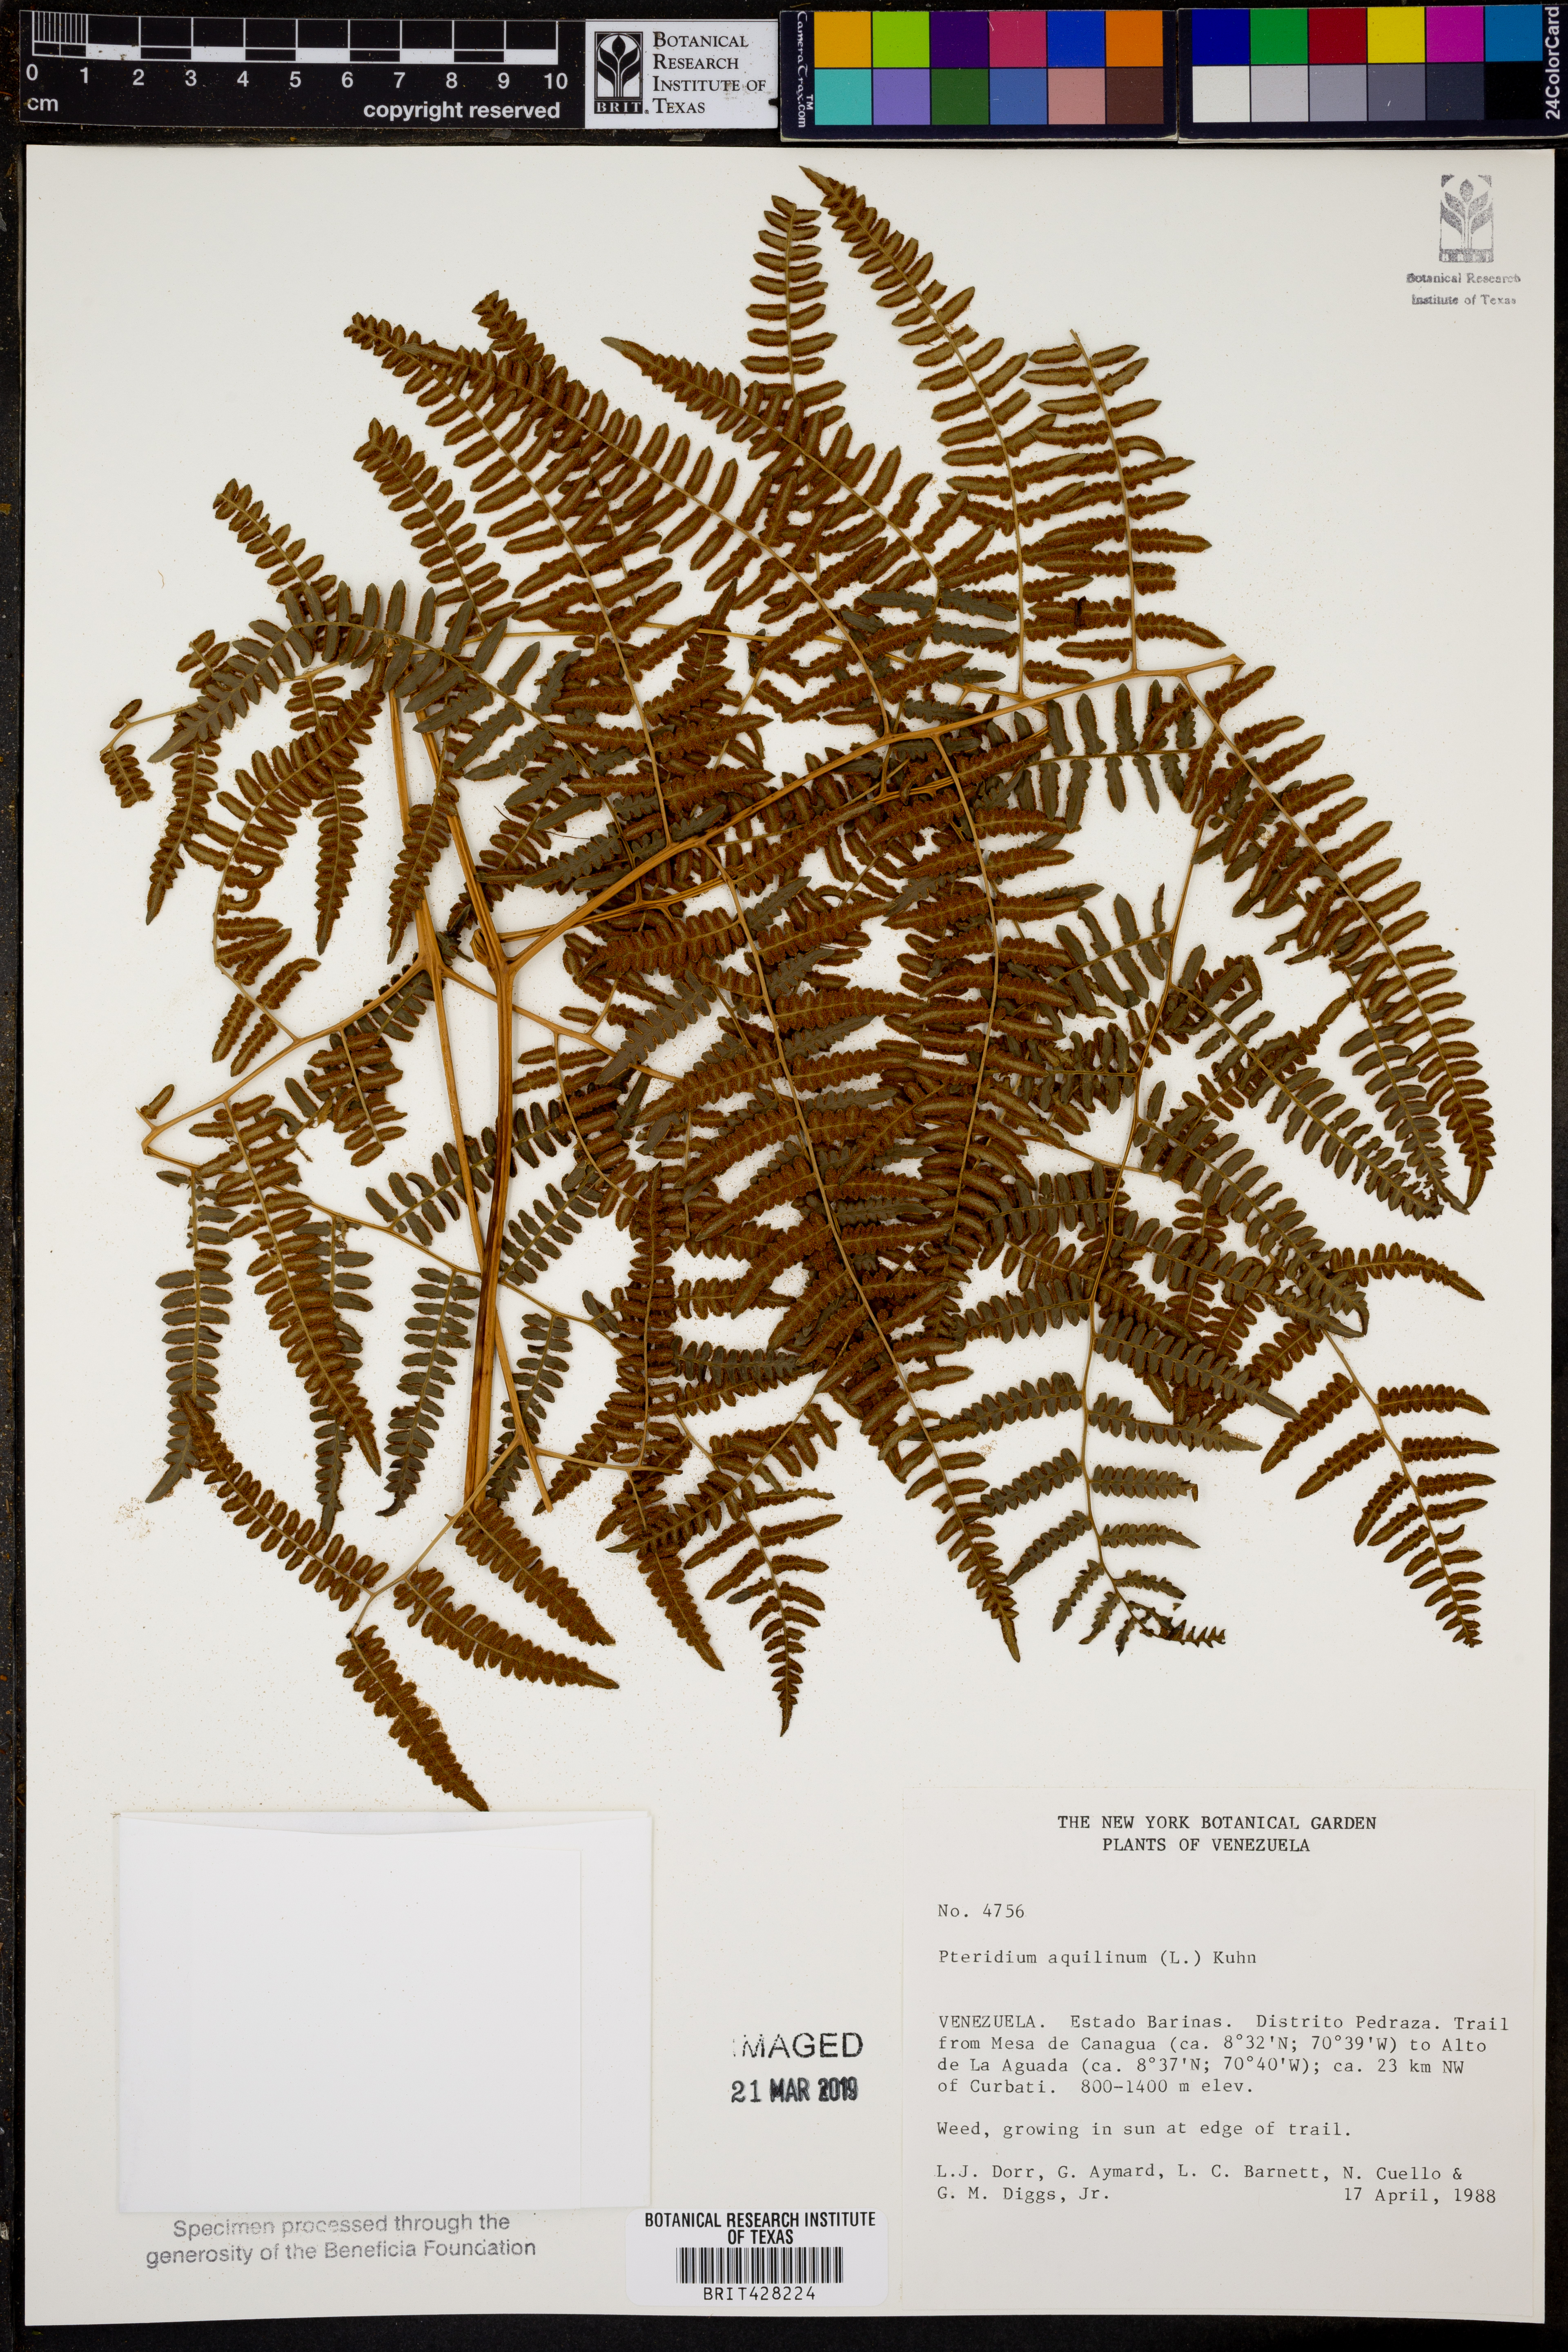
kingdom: Plantae
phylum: Tracheophyta
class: Polypodiopsida
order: Polypodiales
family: Dennstaedtiaceae
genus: Pteridium
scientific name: Pteridium aquilinum
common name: Bracken
